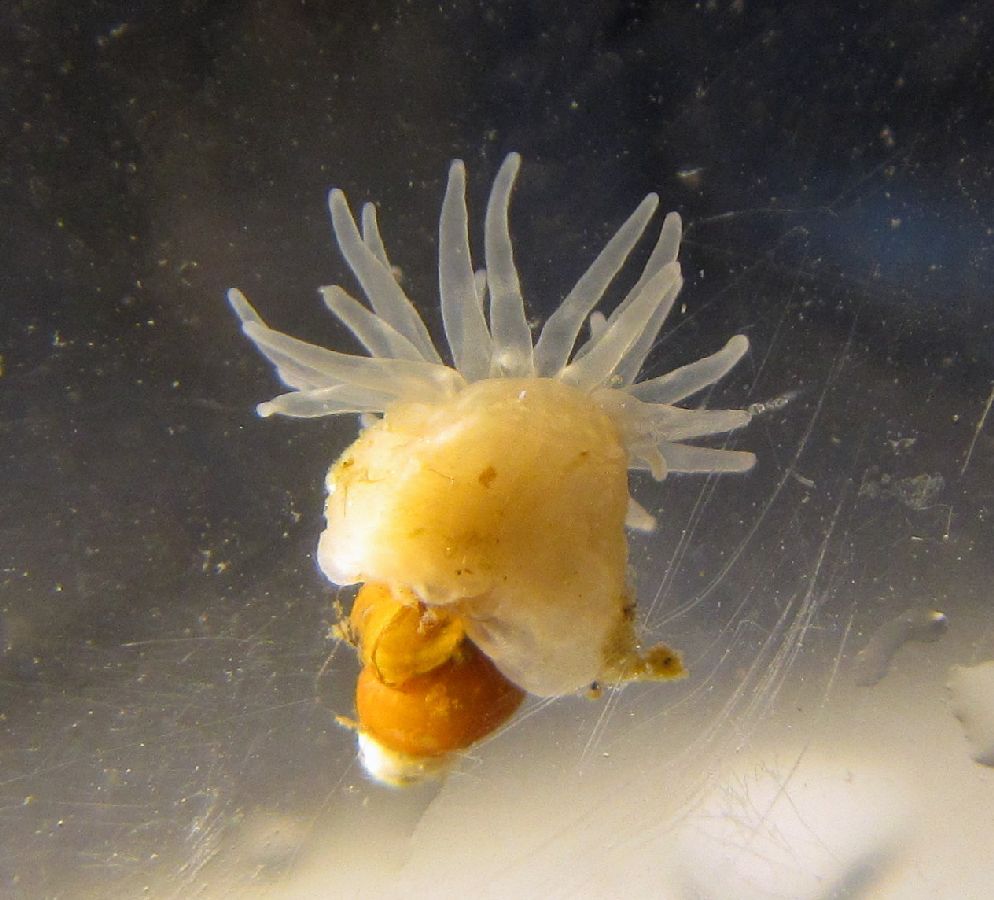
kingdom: Animalia
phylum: Cnidaria
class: Anthozoa
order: Actiniaria
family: Actiniidae
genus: Aulactinia
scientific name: Aulactinia stella
